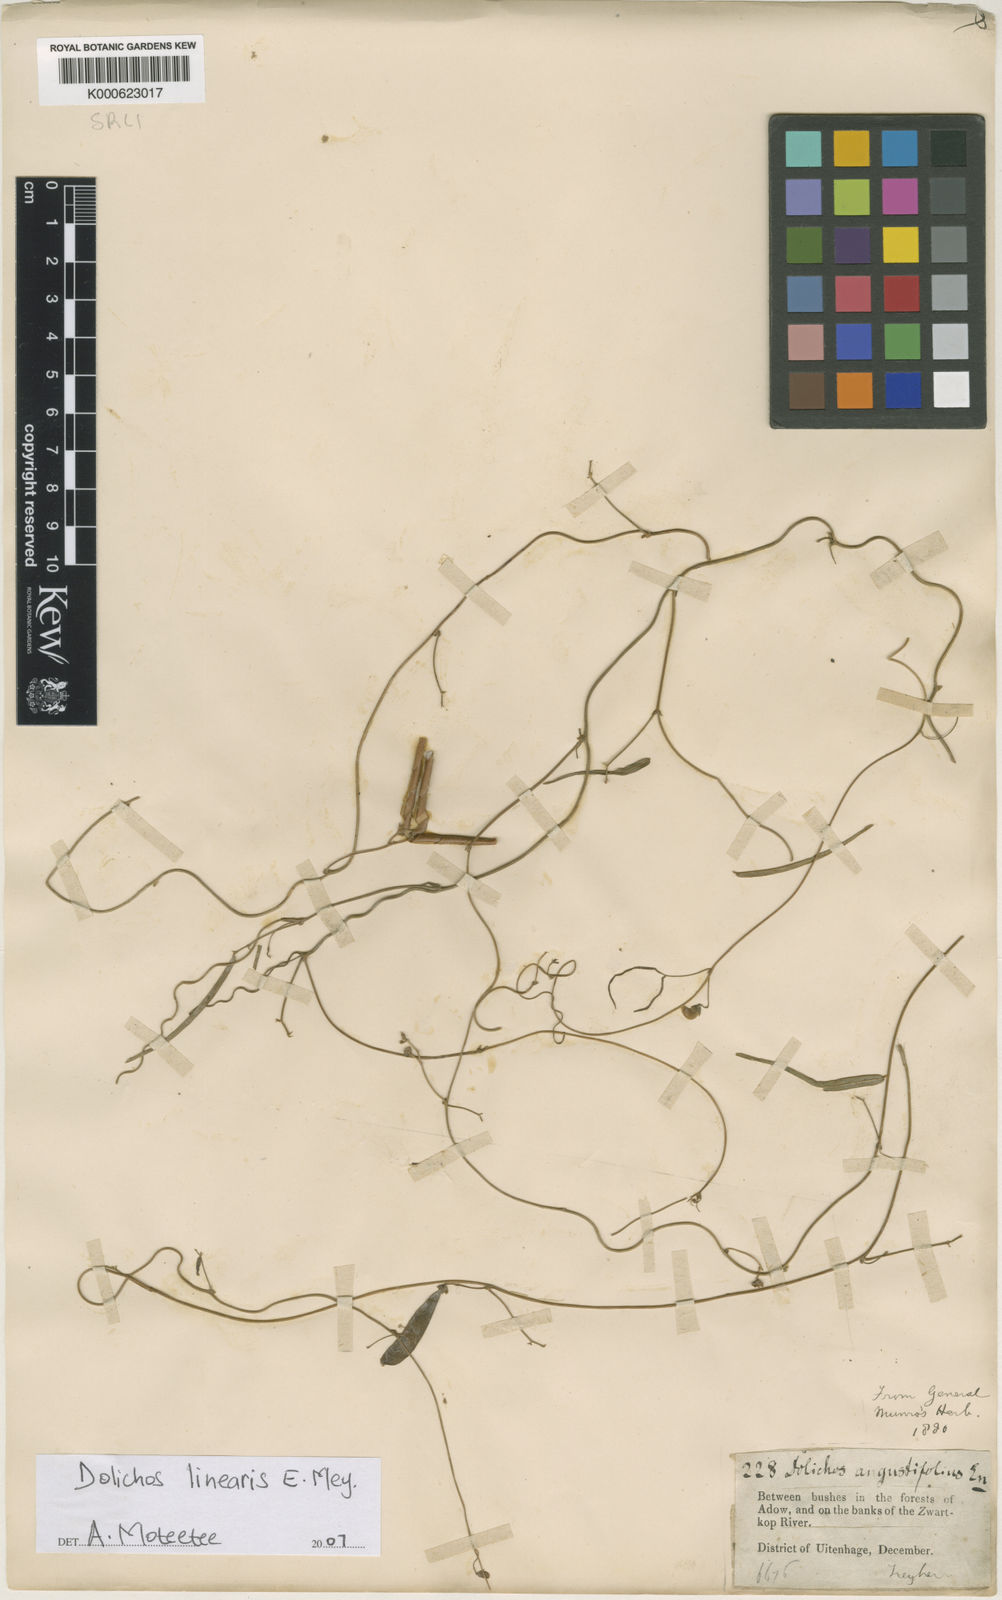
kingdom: Plantae
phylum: Tracheophyta
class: Magnoliopsida
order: Fabales
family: Fabaceae
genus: Dolichos
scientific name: Dolichos linearis
